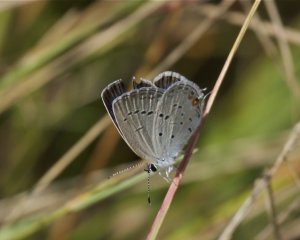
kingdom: Animalia
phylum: Arthropoda
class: Insecta
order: Lepidoptera
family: Lycaenidae
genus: Elkalyce
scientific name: Elkalyce comyntas
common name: Eastern Tailed-Blue
